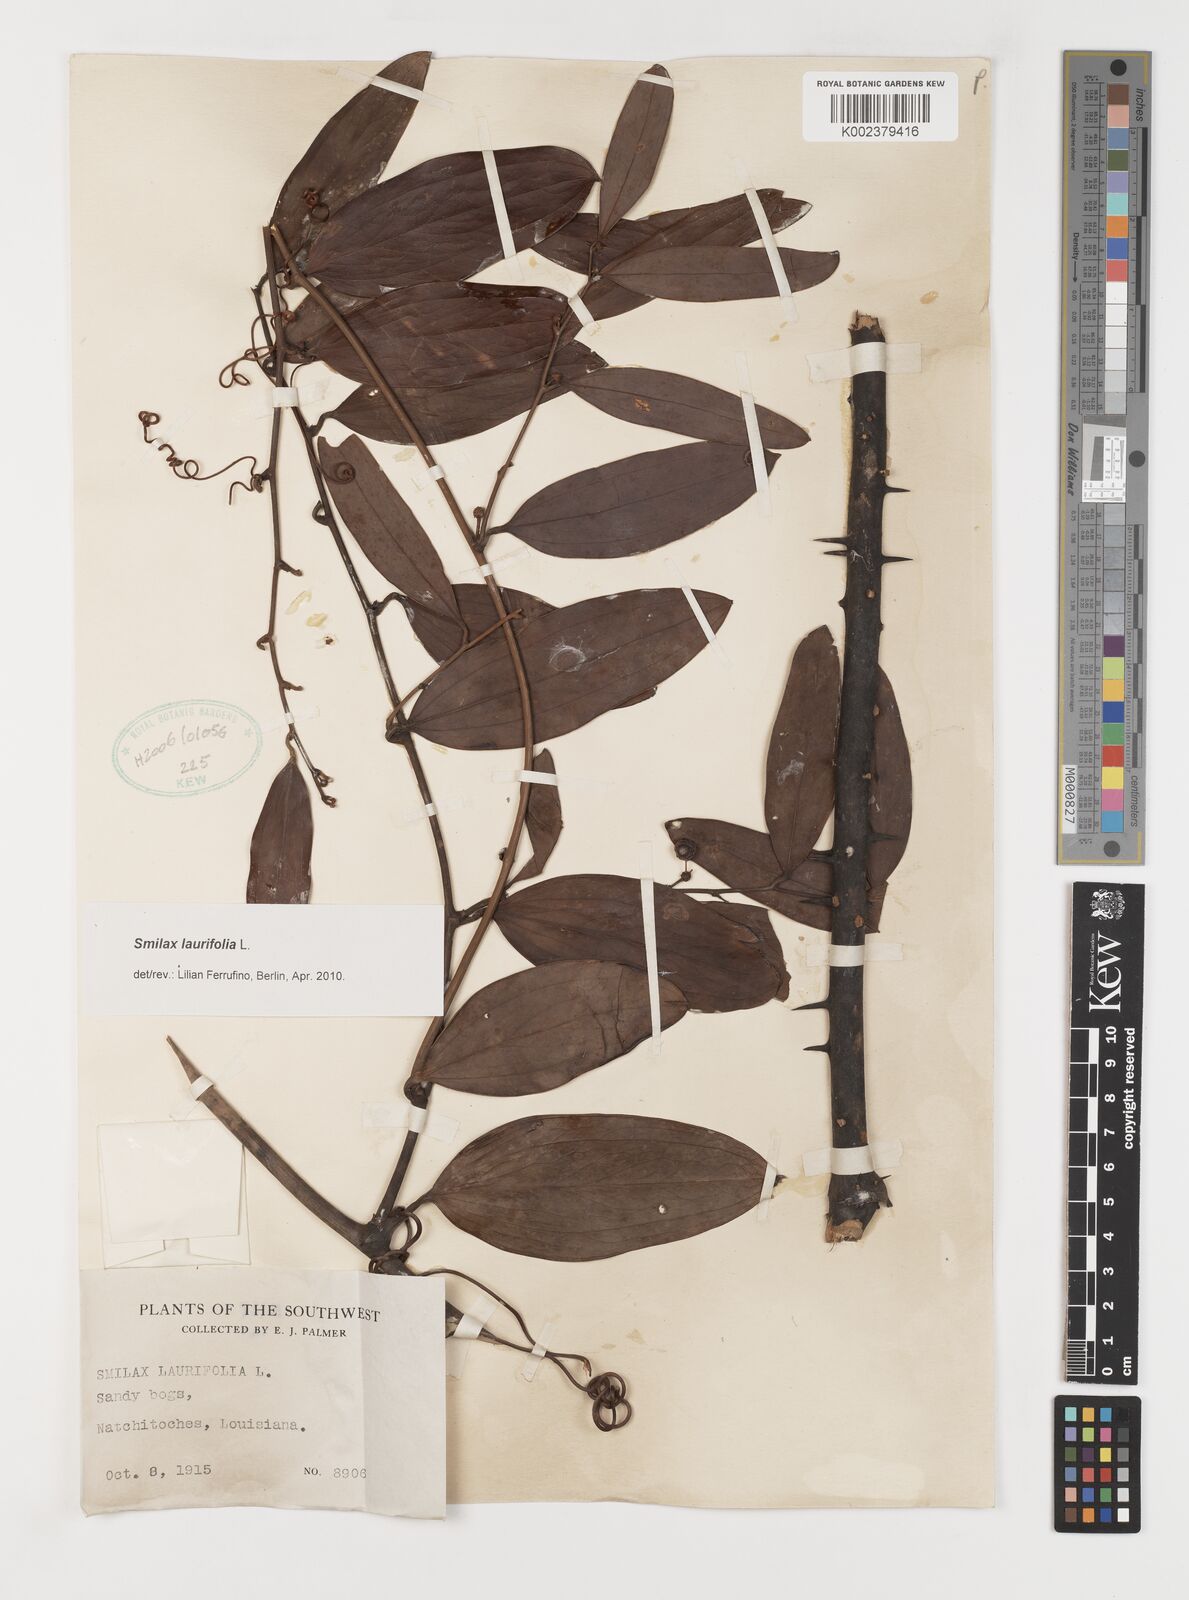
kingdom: Plantae
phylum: Tracheophyta
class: Liliopsida
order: Liliales
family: Smilacaceae
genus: Smilax
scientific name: Smilax laurifolia
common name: Bamboovine
